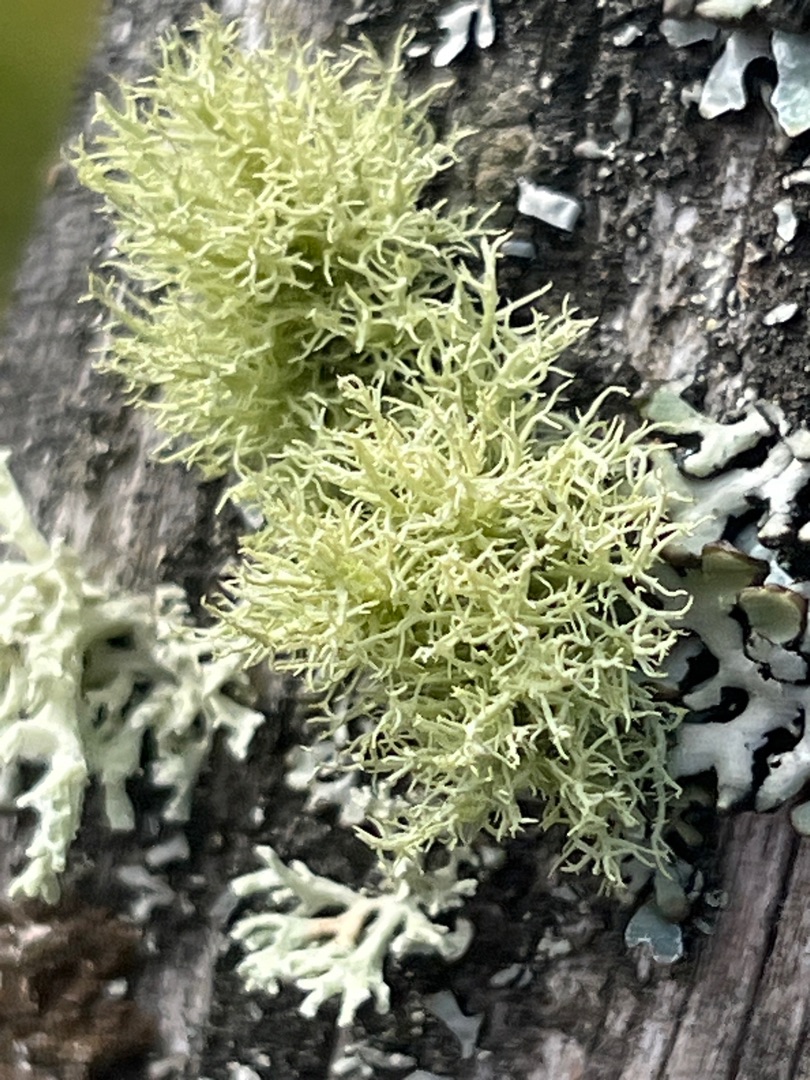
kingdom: Fungi
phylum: Ascomycota
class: Lecanoromycetes
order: Lecanorales
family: Parmeliaceae
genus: Usnea
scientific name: Usnea
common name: Skæglav
